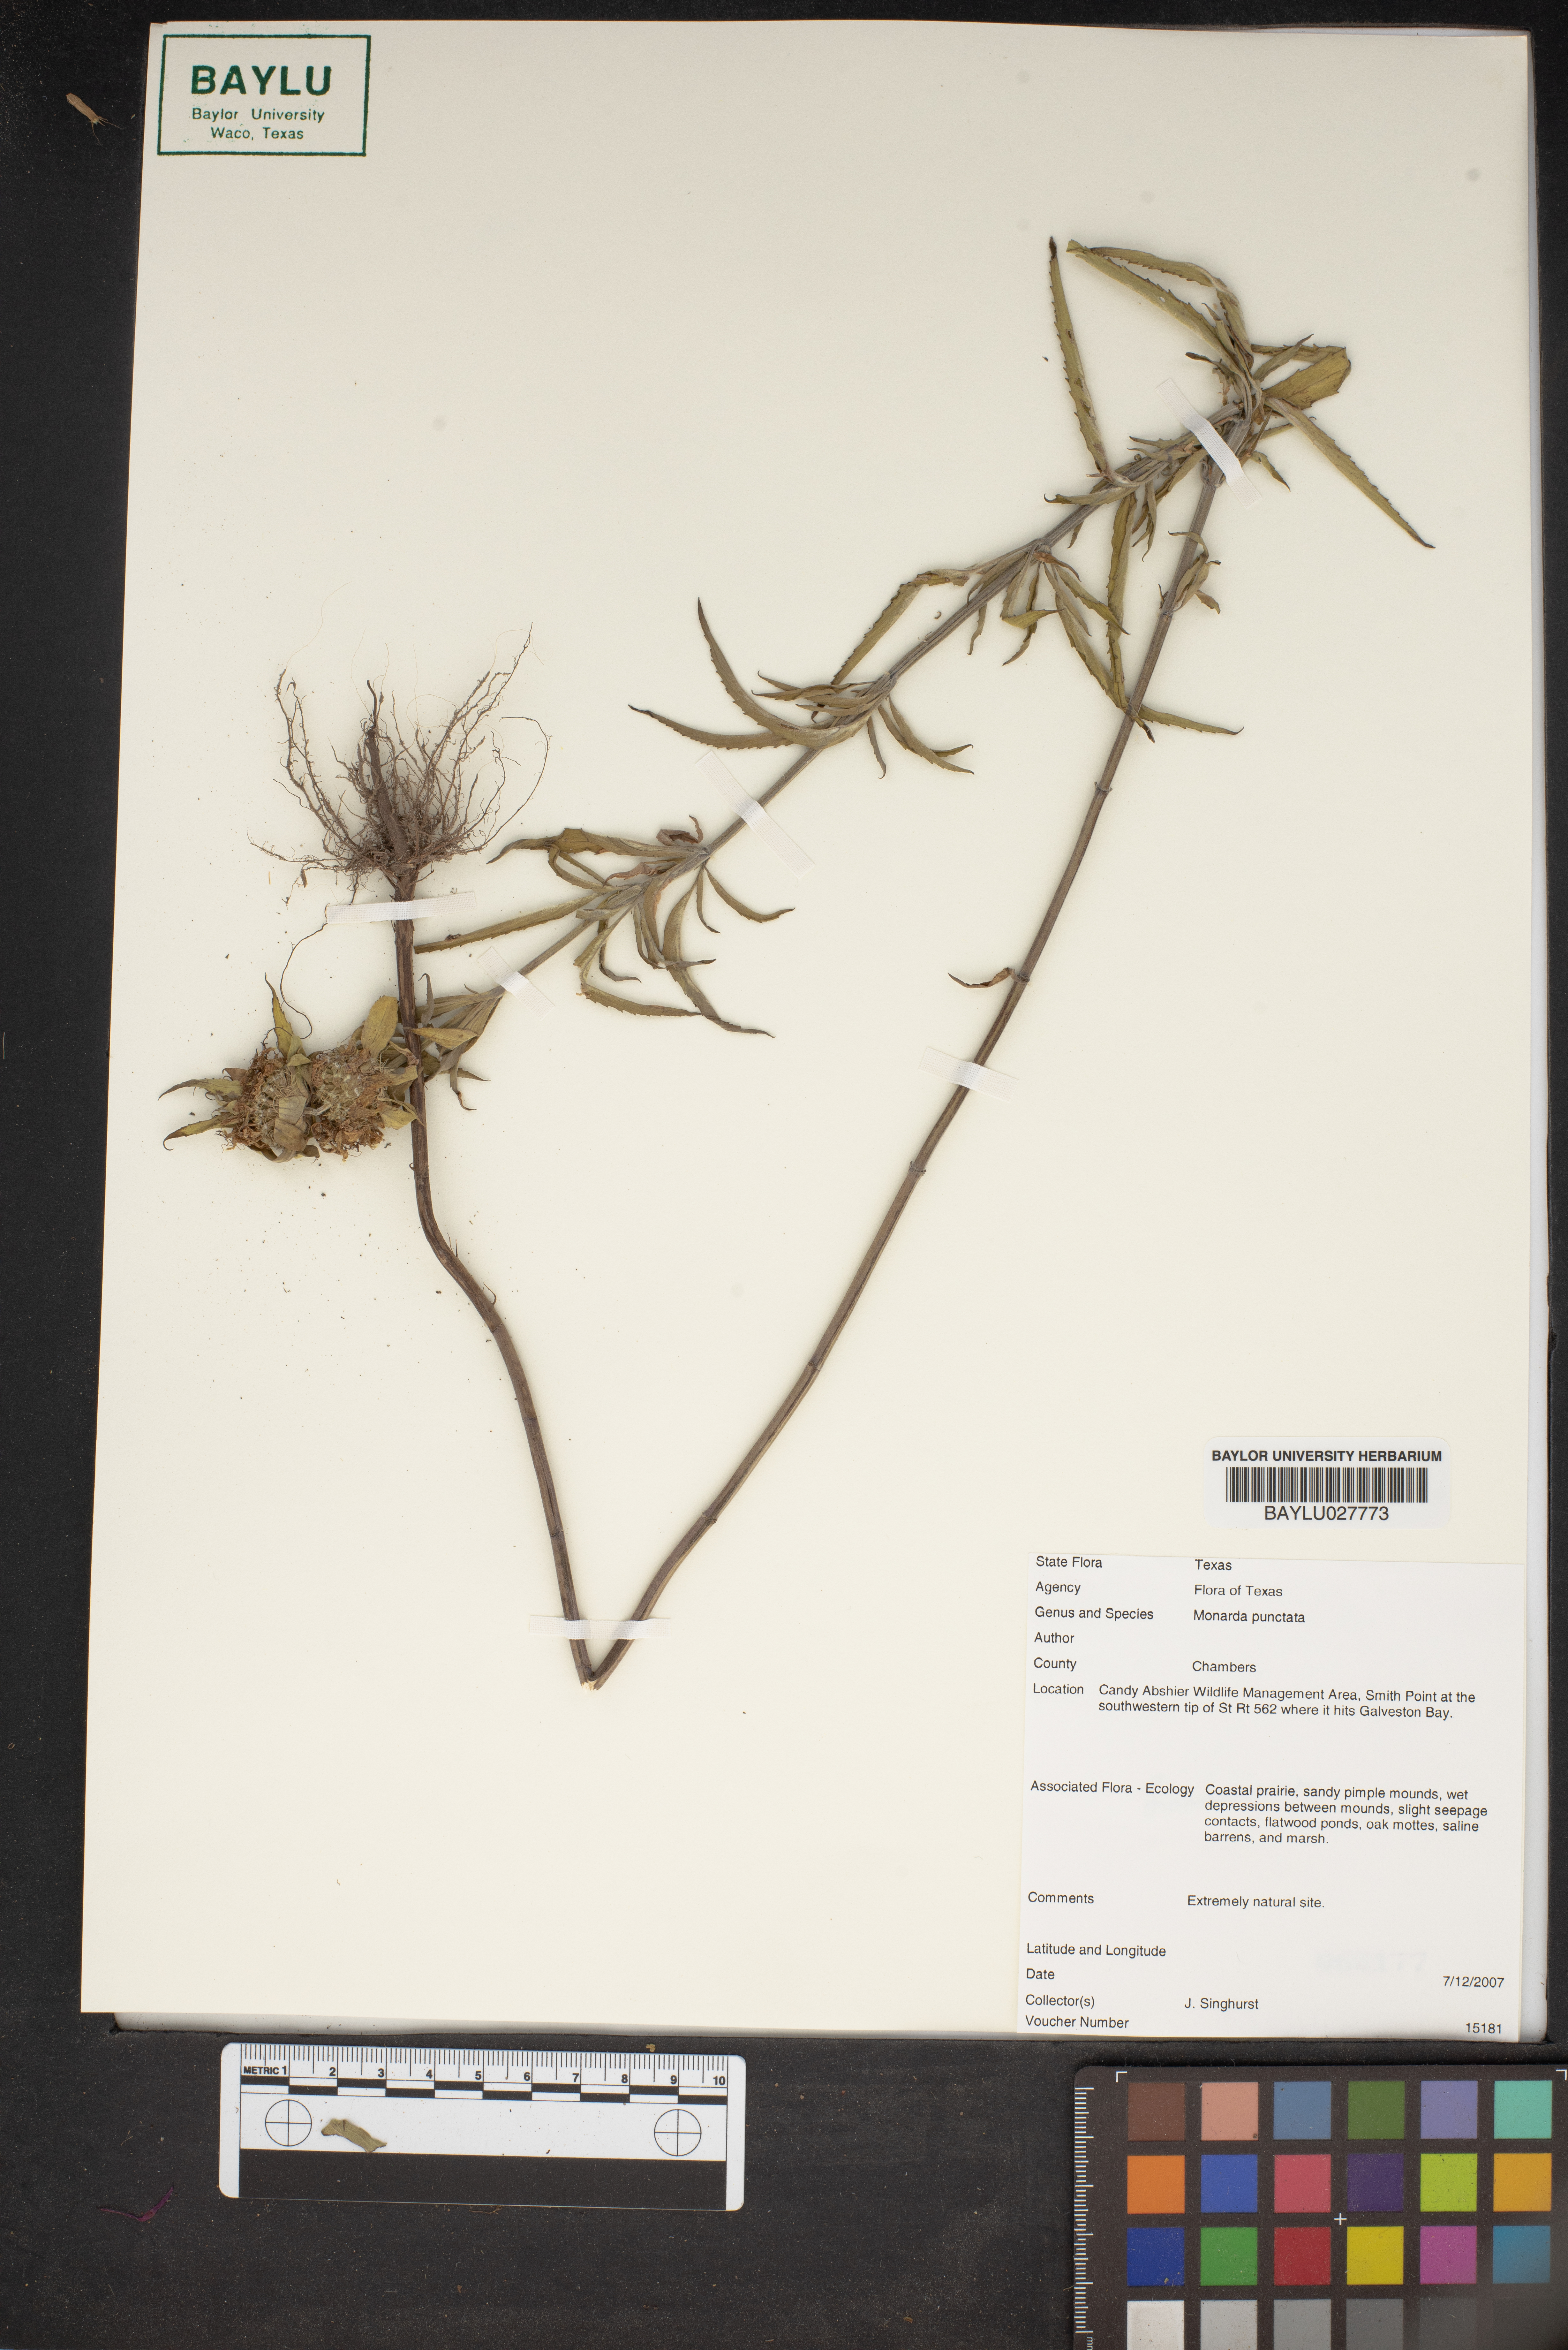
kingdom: Plantae
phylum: Tracheophyta
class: Magnoliopsida
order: Lamiales
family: Lamiaceae
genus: Monarda
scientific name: Monarda punctata
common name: Dotted monarda
